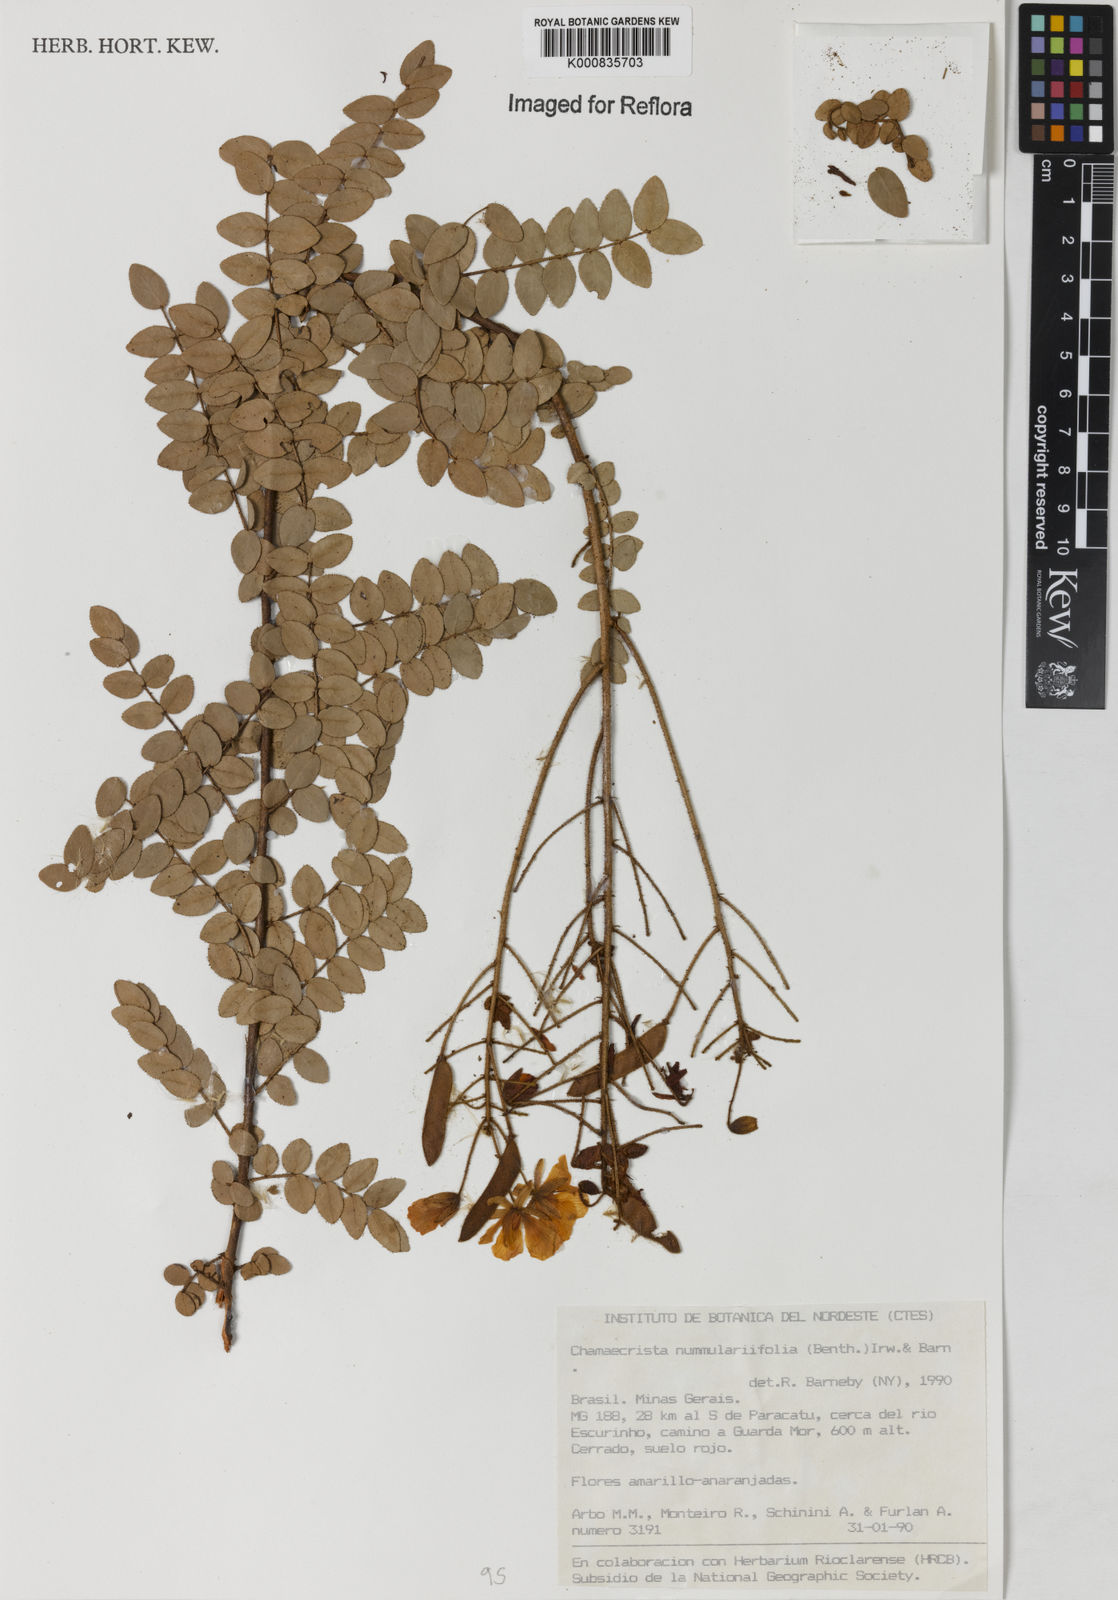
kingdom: Plantae
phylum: Tracheophyta
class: Magnoliopsida
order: Fabales
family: Fabaceae
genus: Chamaecrista
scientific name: Chamaecrista nummulariifolia
